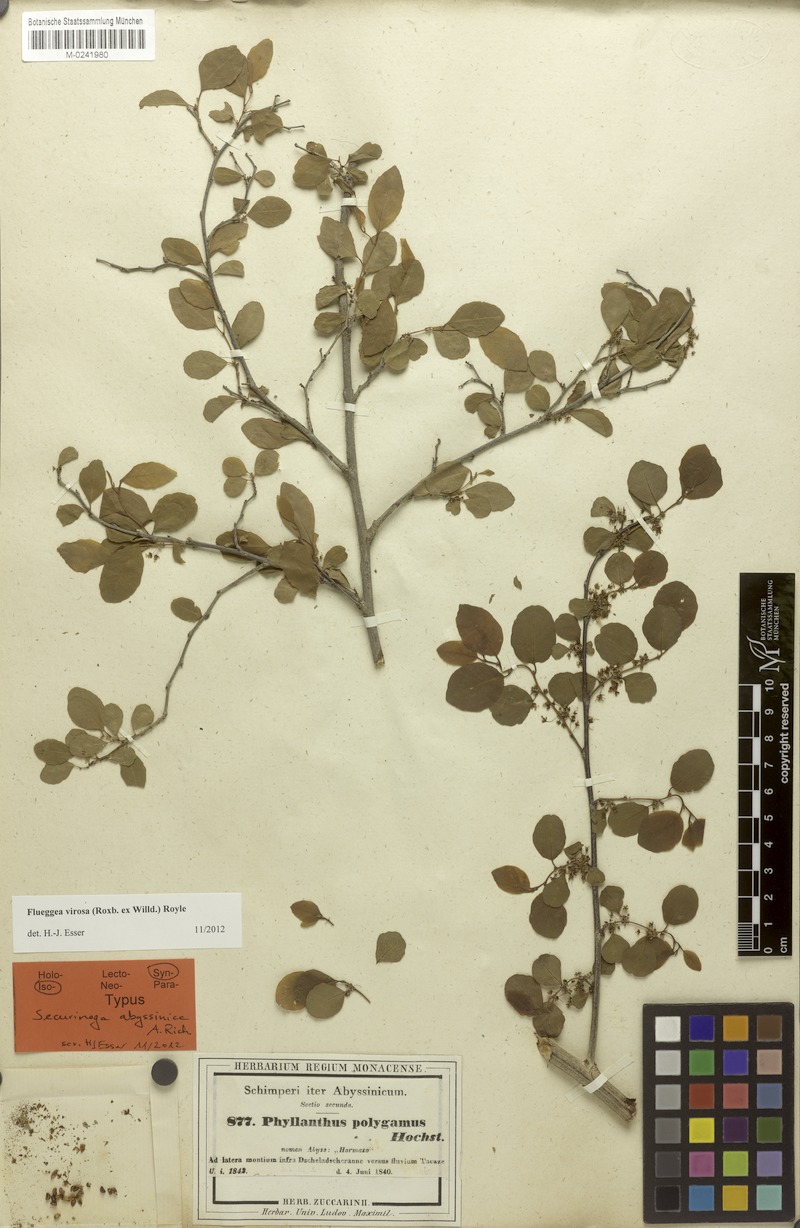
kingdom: Plantae
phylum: Tracheophyta
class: Magnoliopsida
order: Malpighiales
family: Phyllanthaceae
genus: Flueggea
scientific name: Flueggea virosa
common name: Common bushweed
